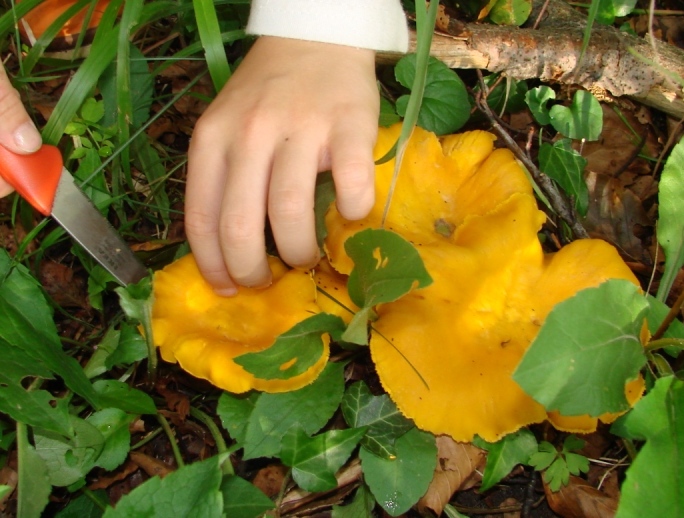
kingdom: Fungi
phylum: Basidiomycota
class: Agaricomycetes
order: Cantharellales
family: Hydnaceae
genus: Cantharellus
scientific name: Cantharellus pallens
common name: bleg kantarel
